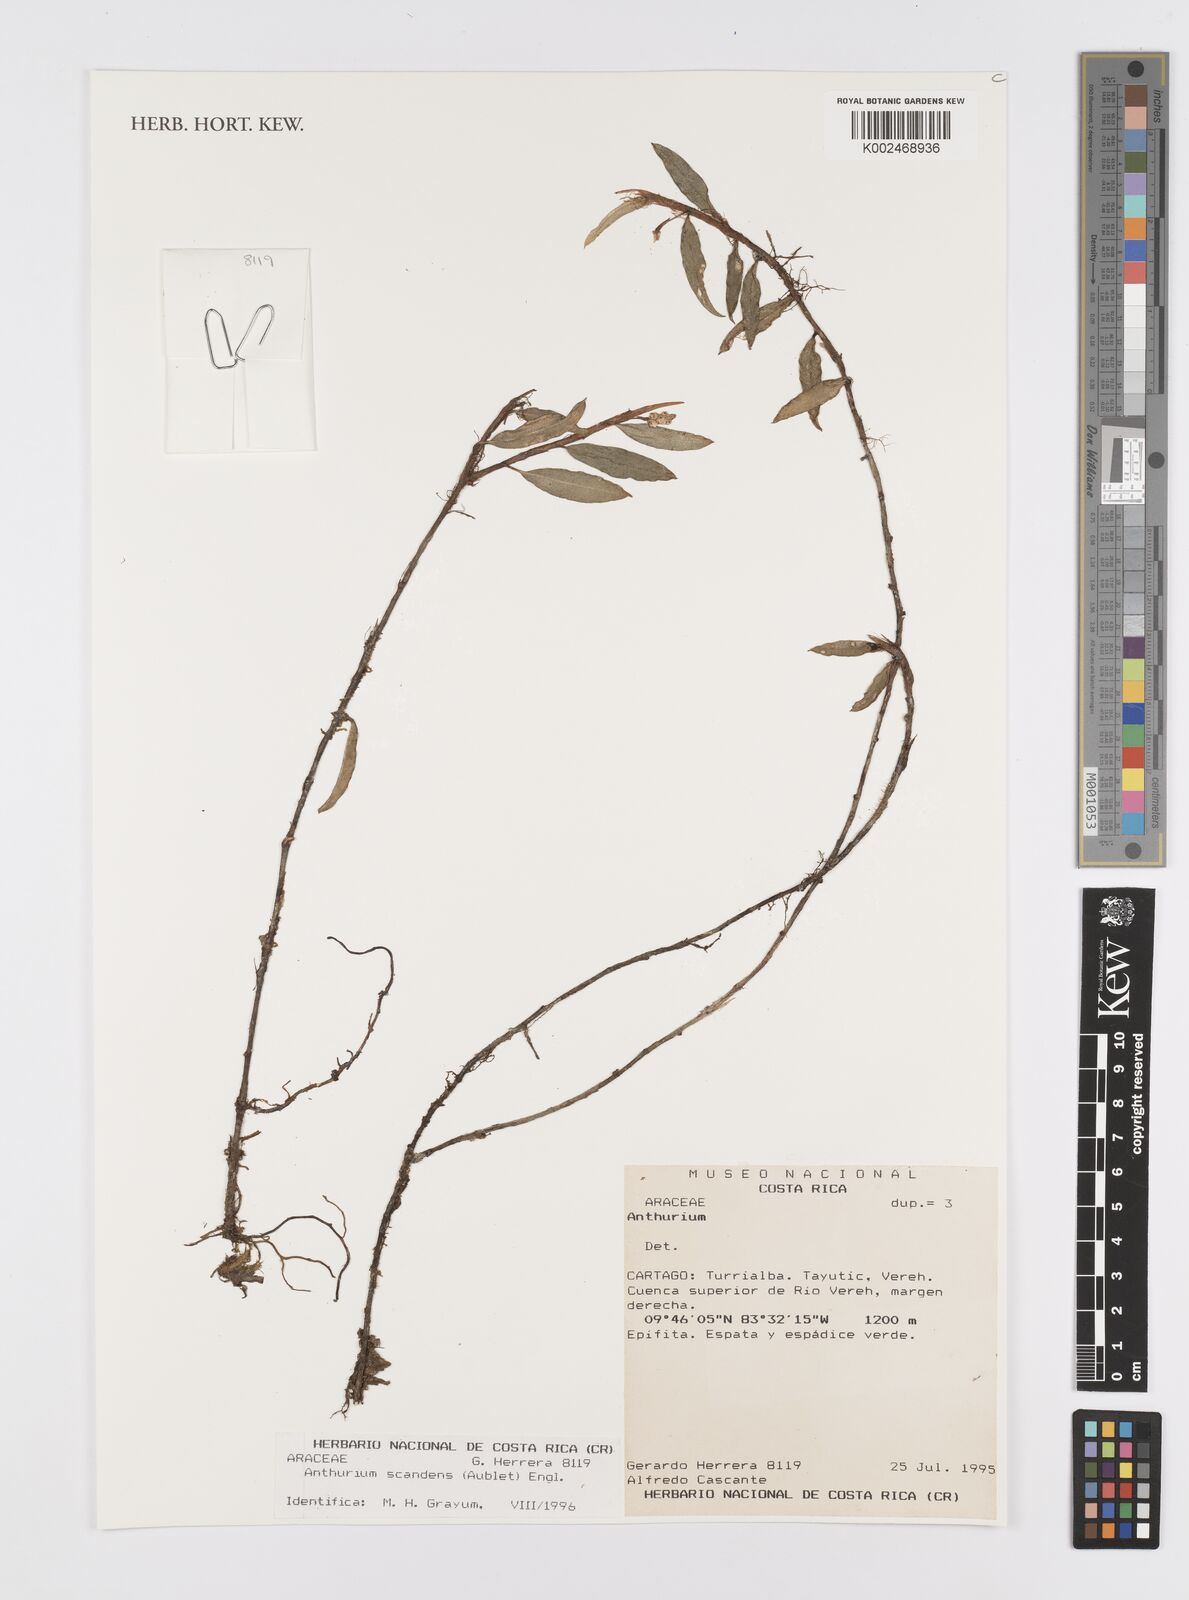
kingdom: Plantae
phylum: Tracheophyta
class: Liliopsida
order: Alismatales
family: Araceae
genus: Anthurium
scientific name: Anthurium scandens
